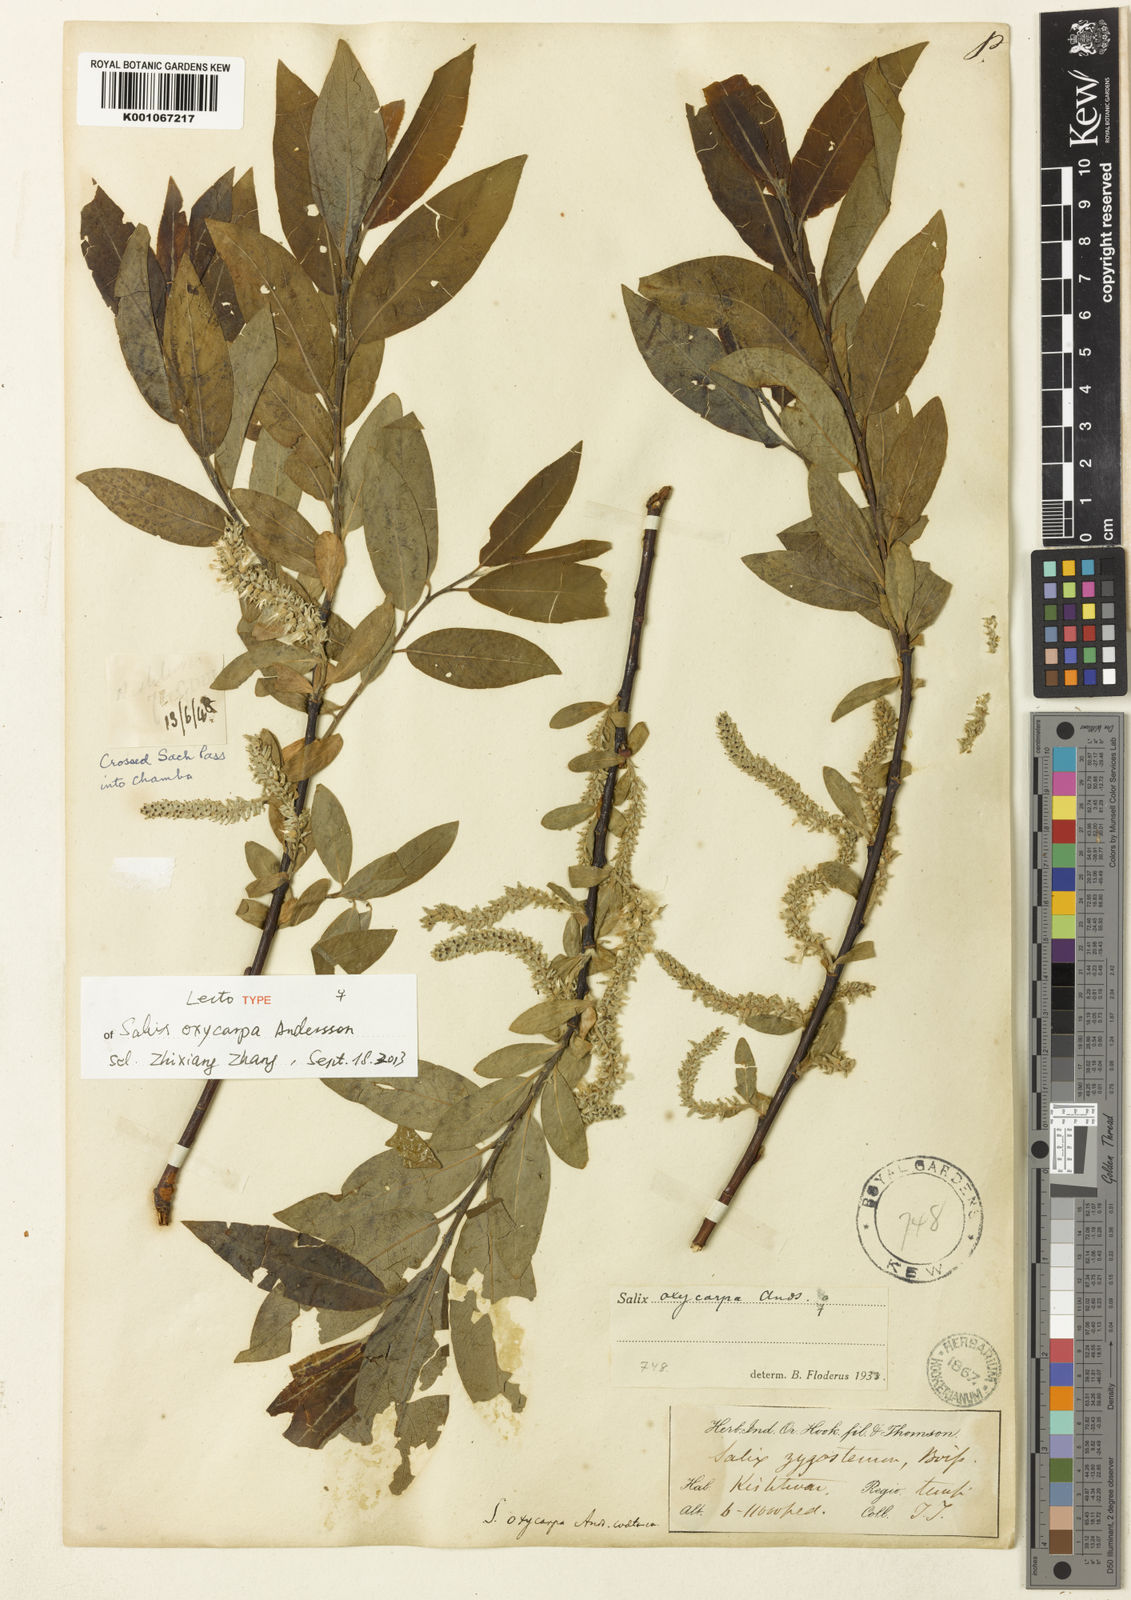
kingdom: Plantae
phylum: Tracheophyta
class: Magnoliopsida
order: Malpighiales
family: Salicaceae
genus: Salix
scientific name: Salix sericocarpa
